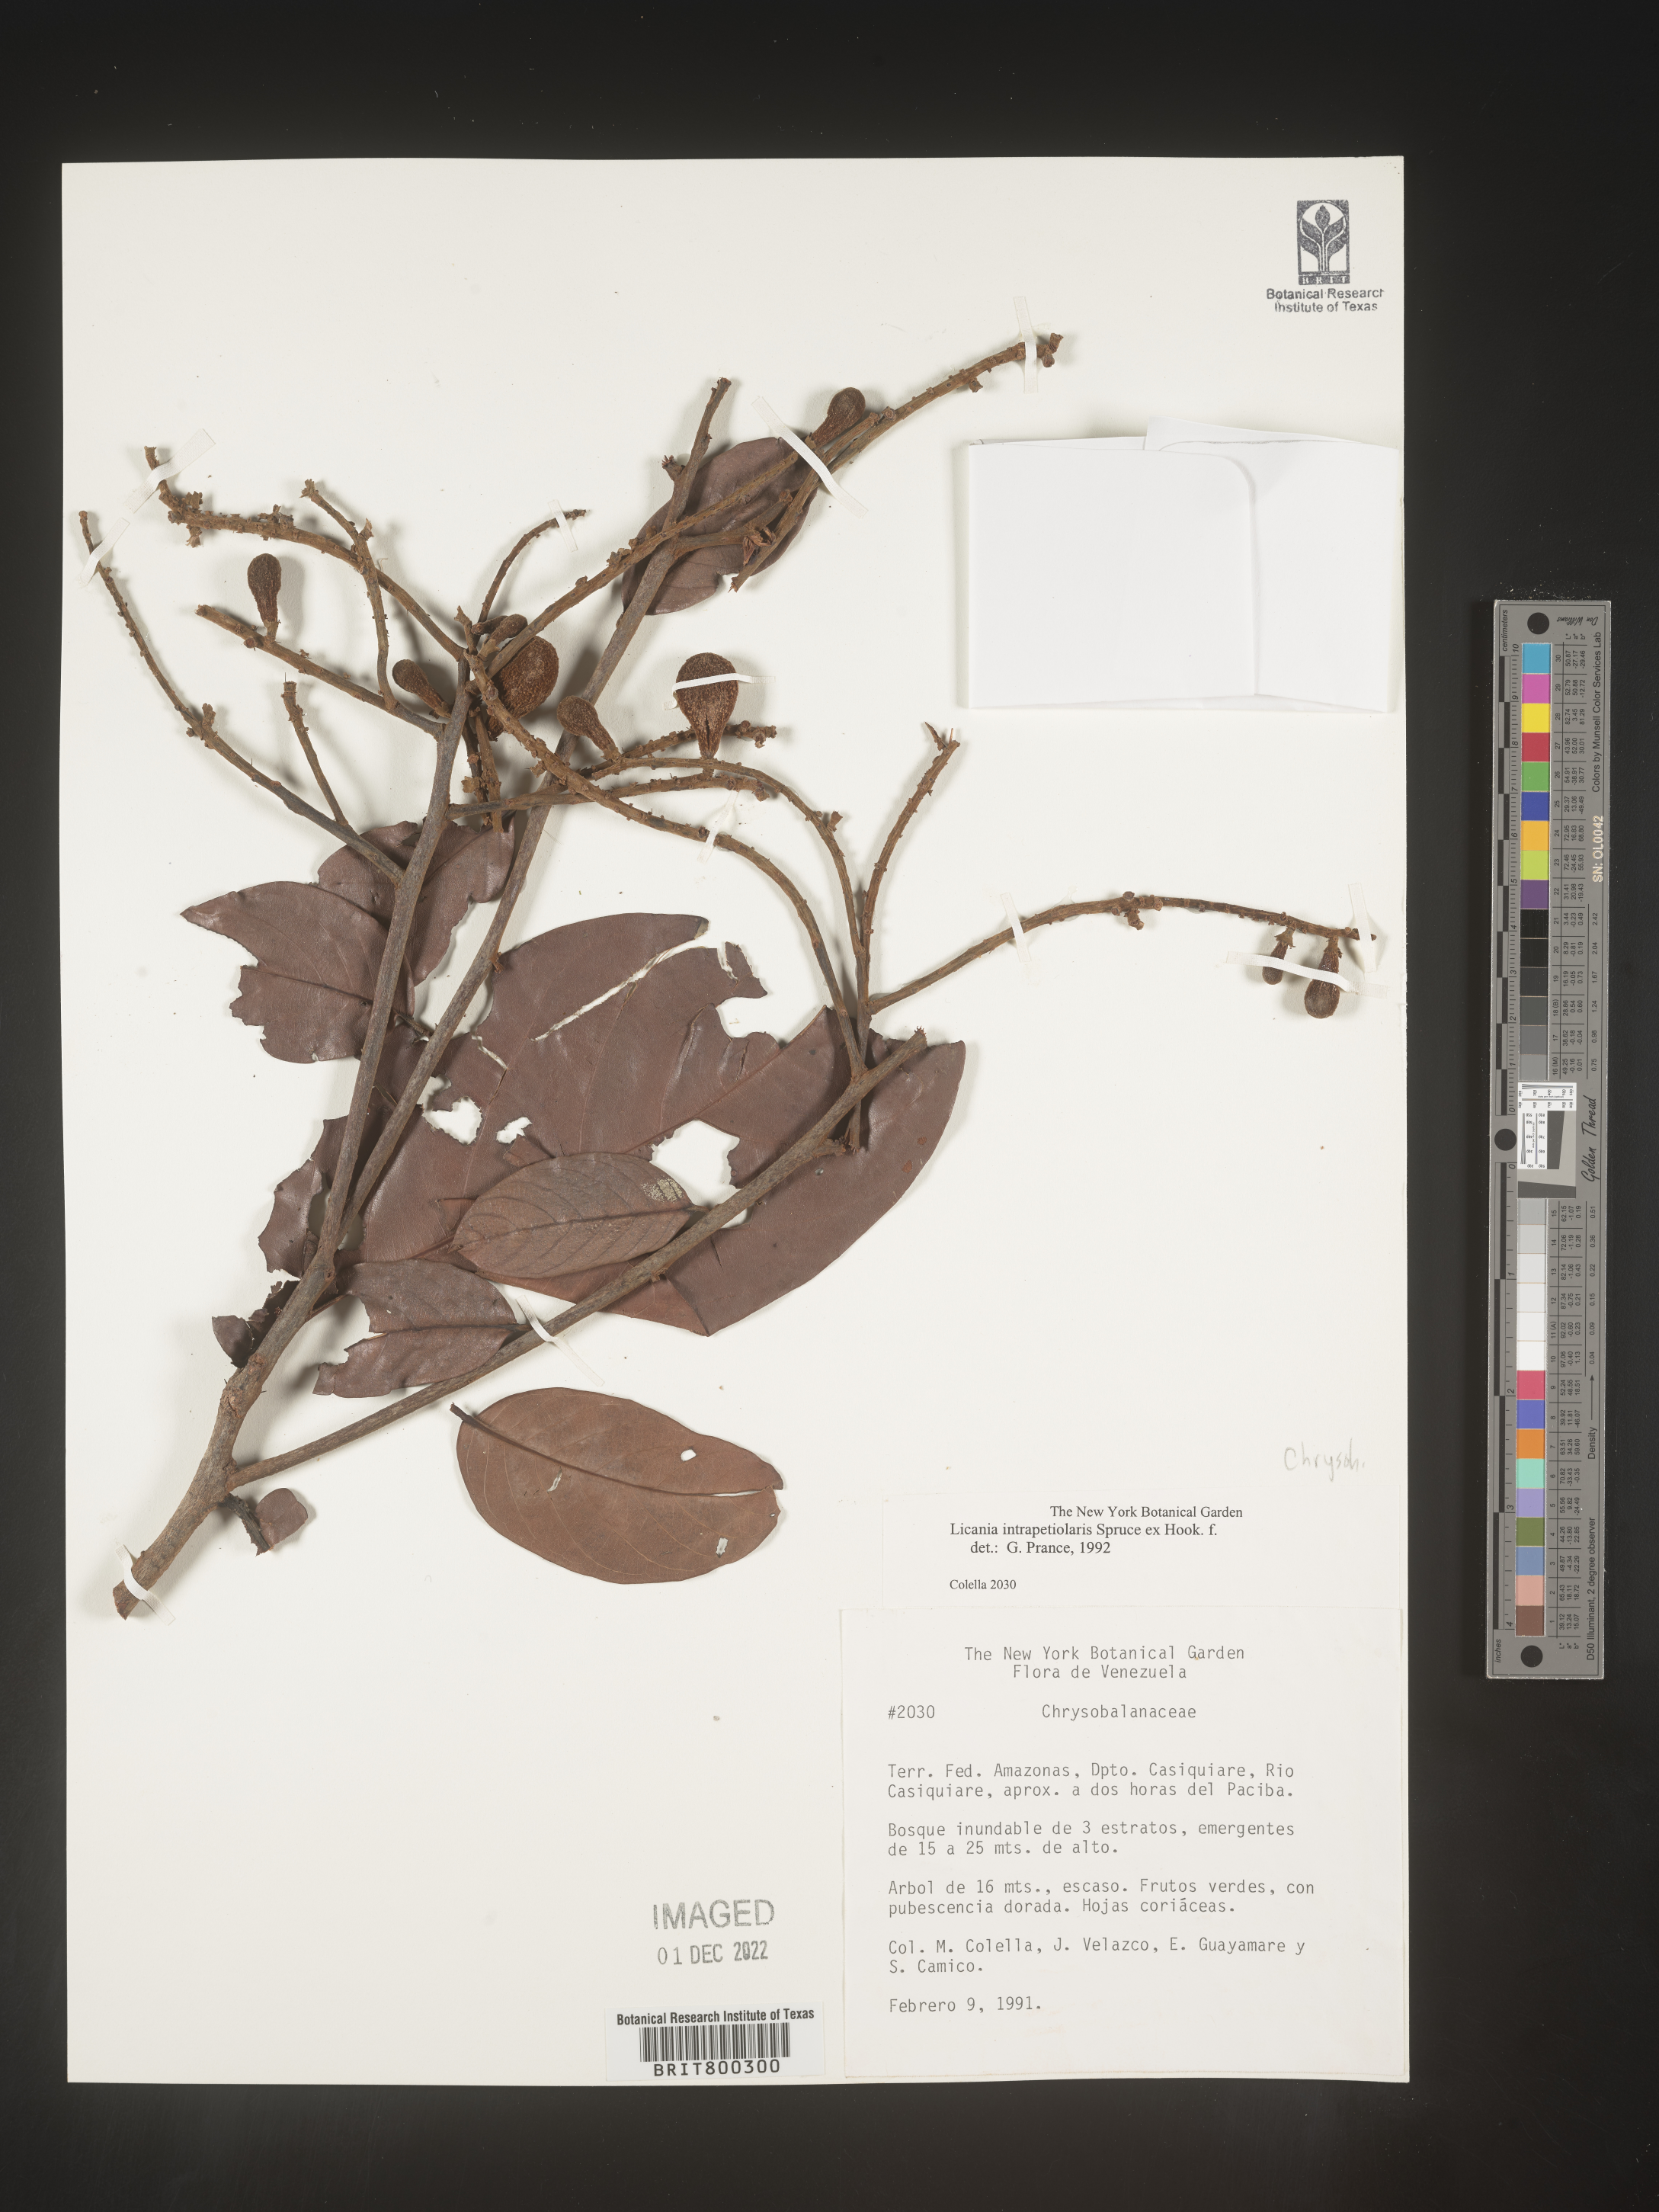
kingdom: Plantae
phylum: Tracheophyta
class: Magnoliopsida
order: Malpighiales
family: Chrysobalanaceae
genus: Licania
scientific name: Licania
